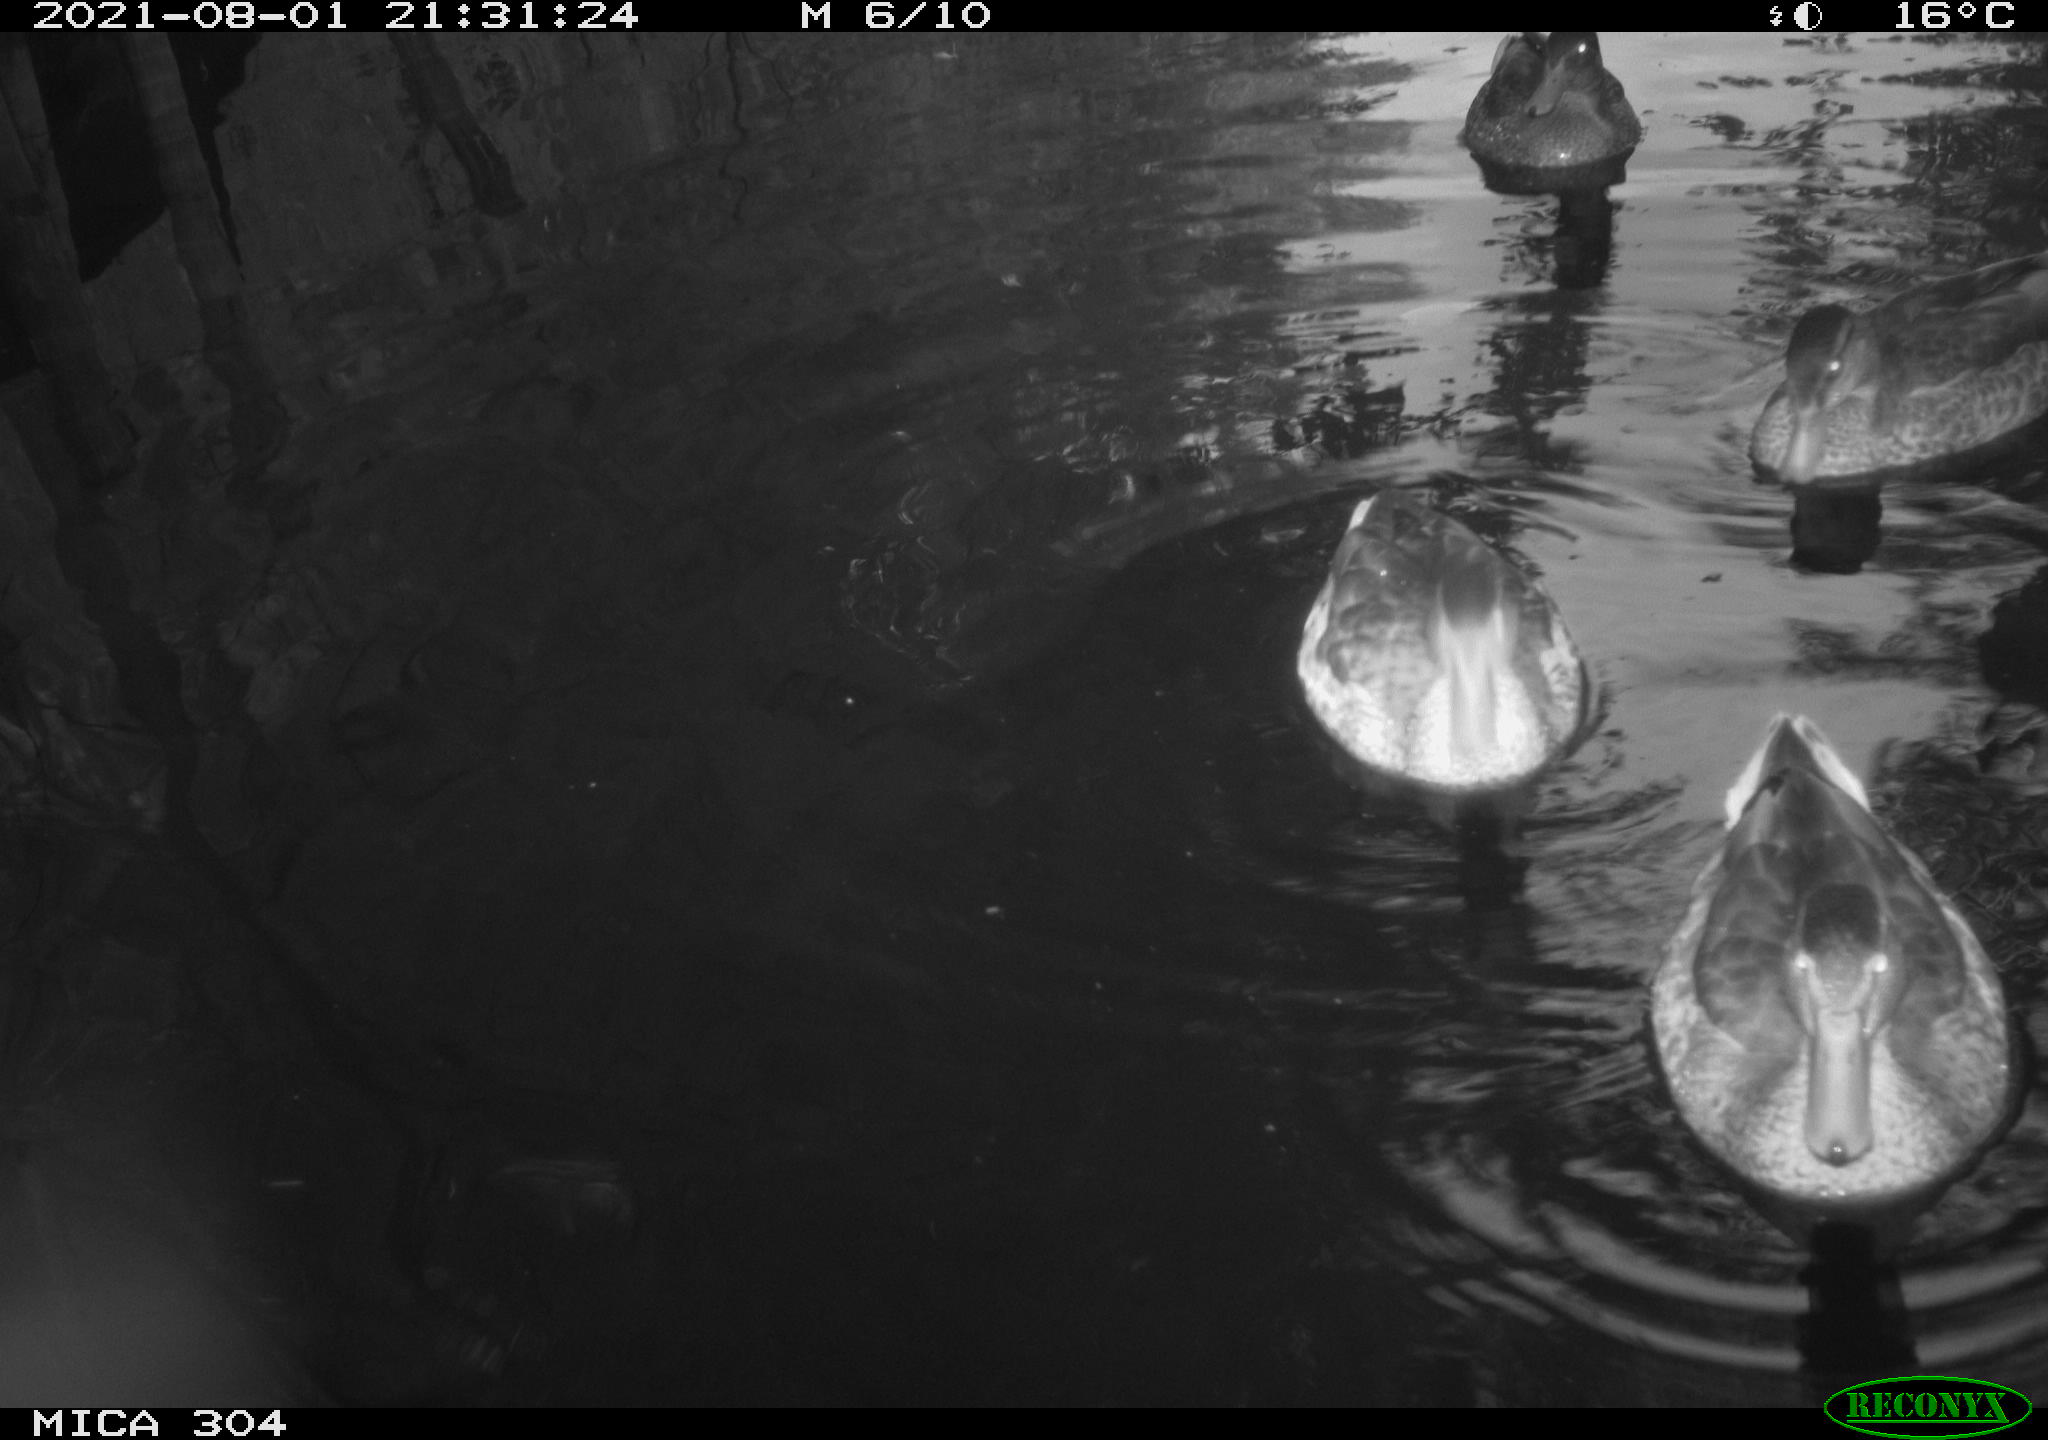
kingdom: Animalia
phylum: Chordata
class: Aves
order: Anseriformes
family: Anatidae
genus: Mareca
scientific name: Mareca strepera
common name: Gadwall
